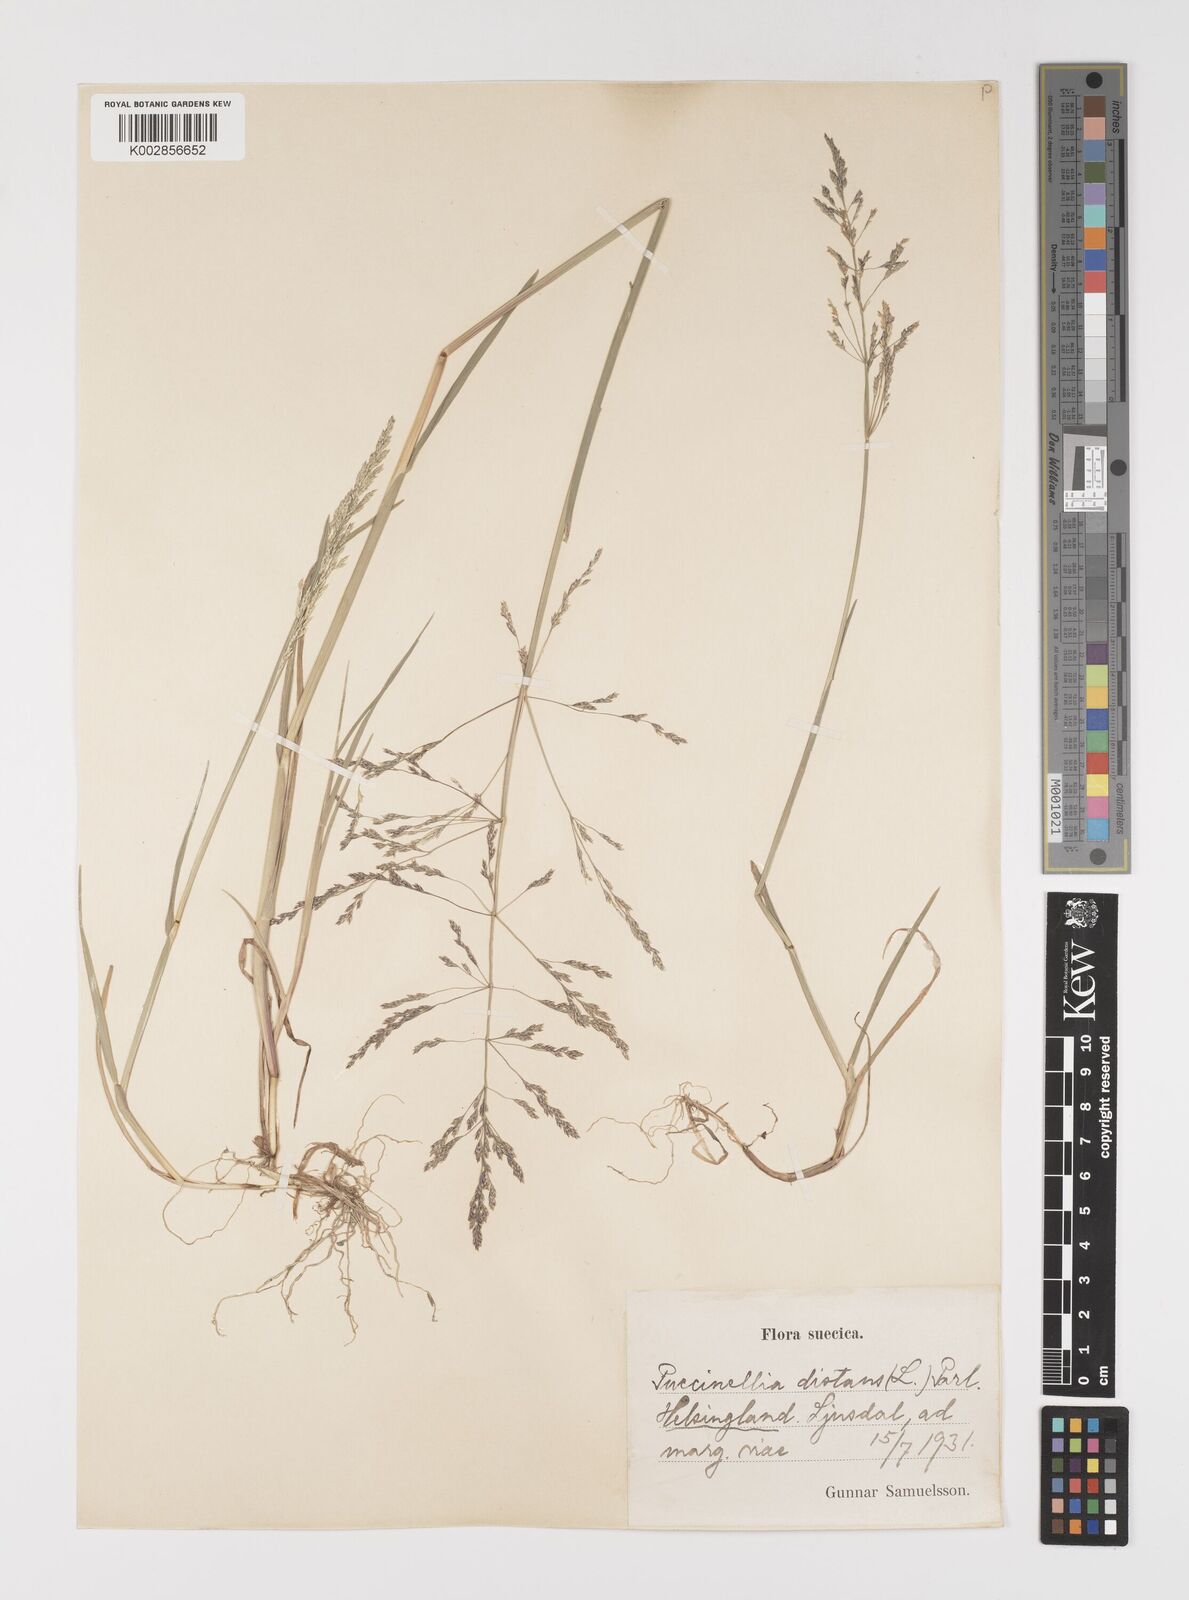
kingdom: Plantae
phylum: Tracheophyta
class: Liliopsida
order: Poales
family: Poaceae
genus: Puccinellia
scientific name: Puccinellia
